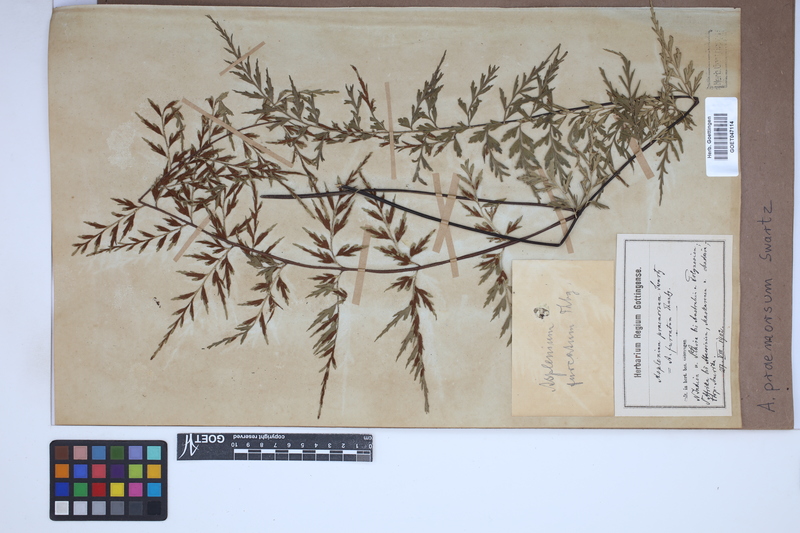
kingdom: Plantae
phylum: Tracheophyta
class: Polypodiopsida
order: Polypodiales
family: Aspleniaceae
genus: Asplenium
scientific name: Asplenium praemorsum
